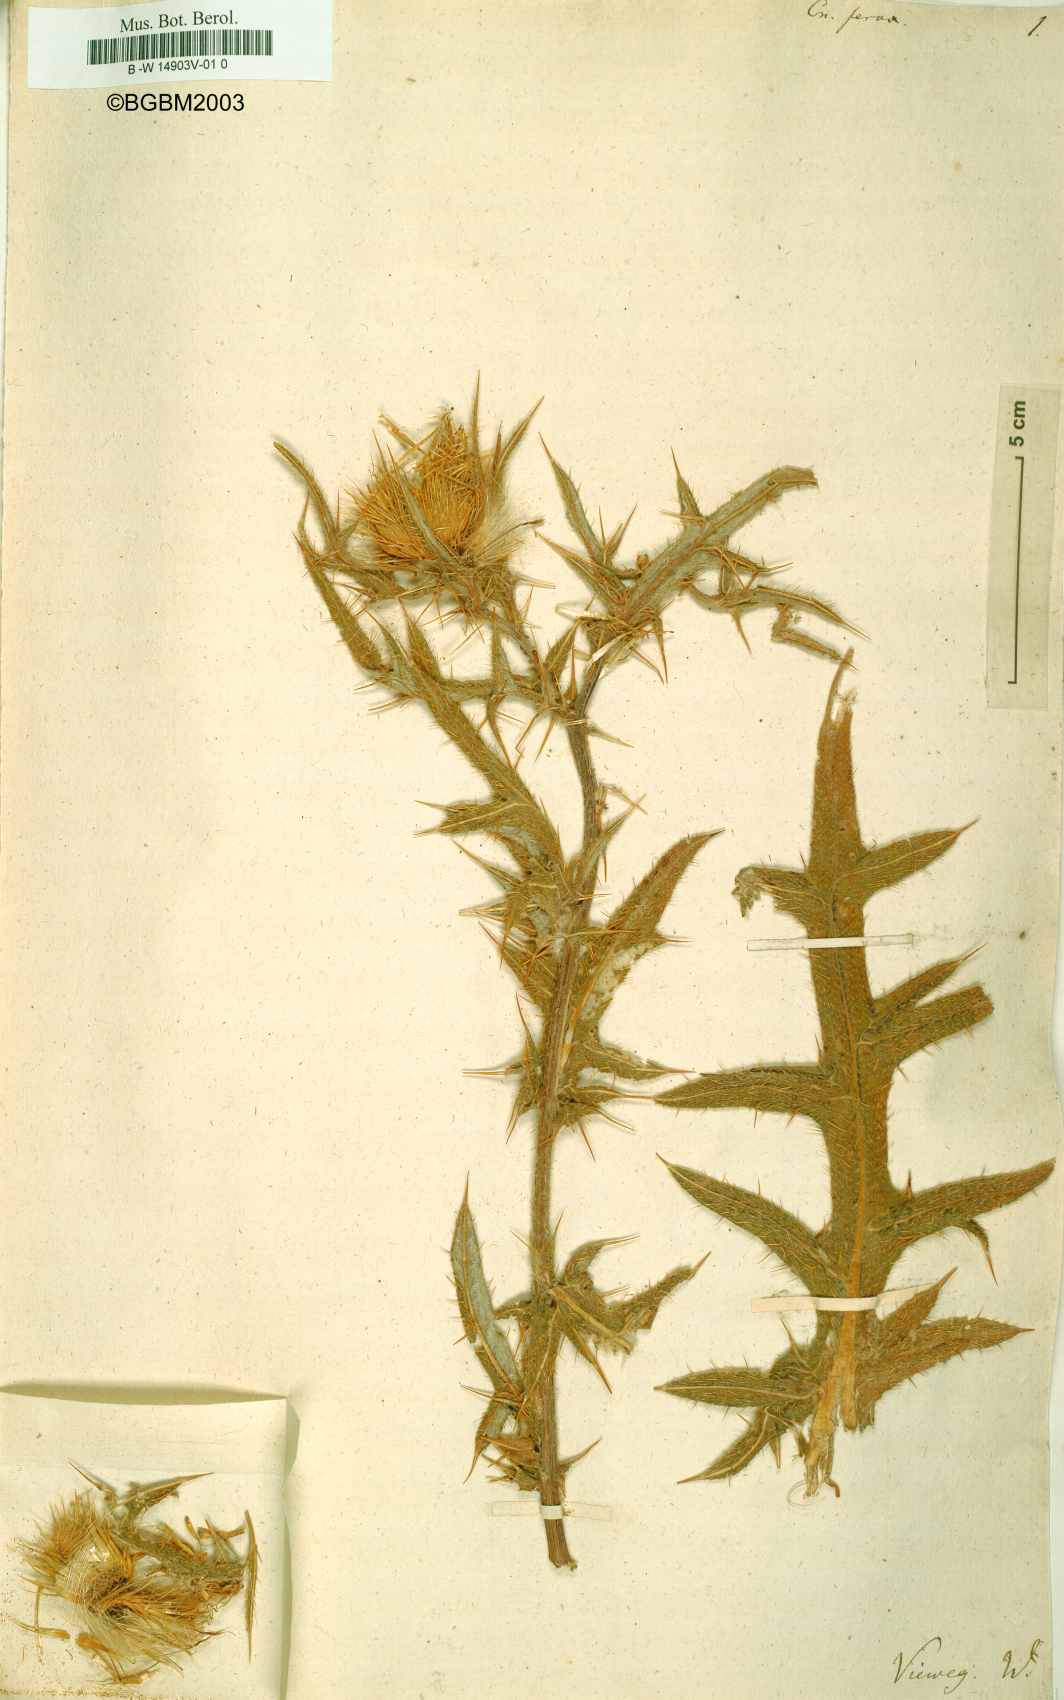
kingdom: Plantae
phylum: Tracheophyta
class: Magnoliopsida
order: Asterales
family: Asteraceae
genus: Lophiolepis
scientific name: Lophiolepis
